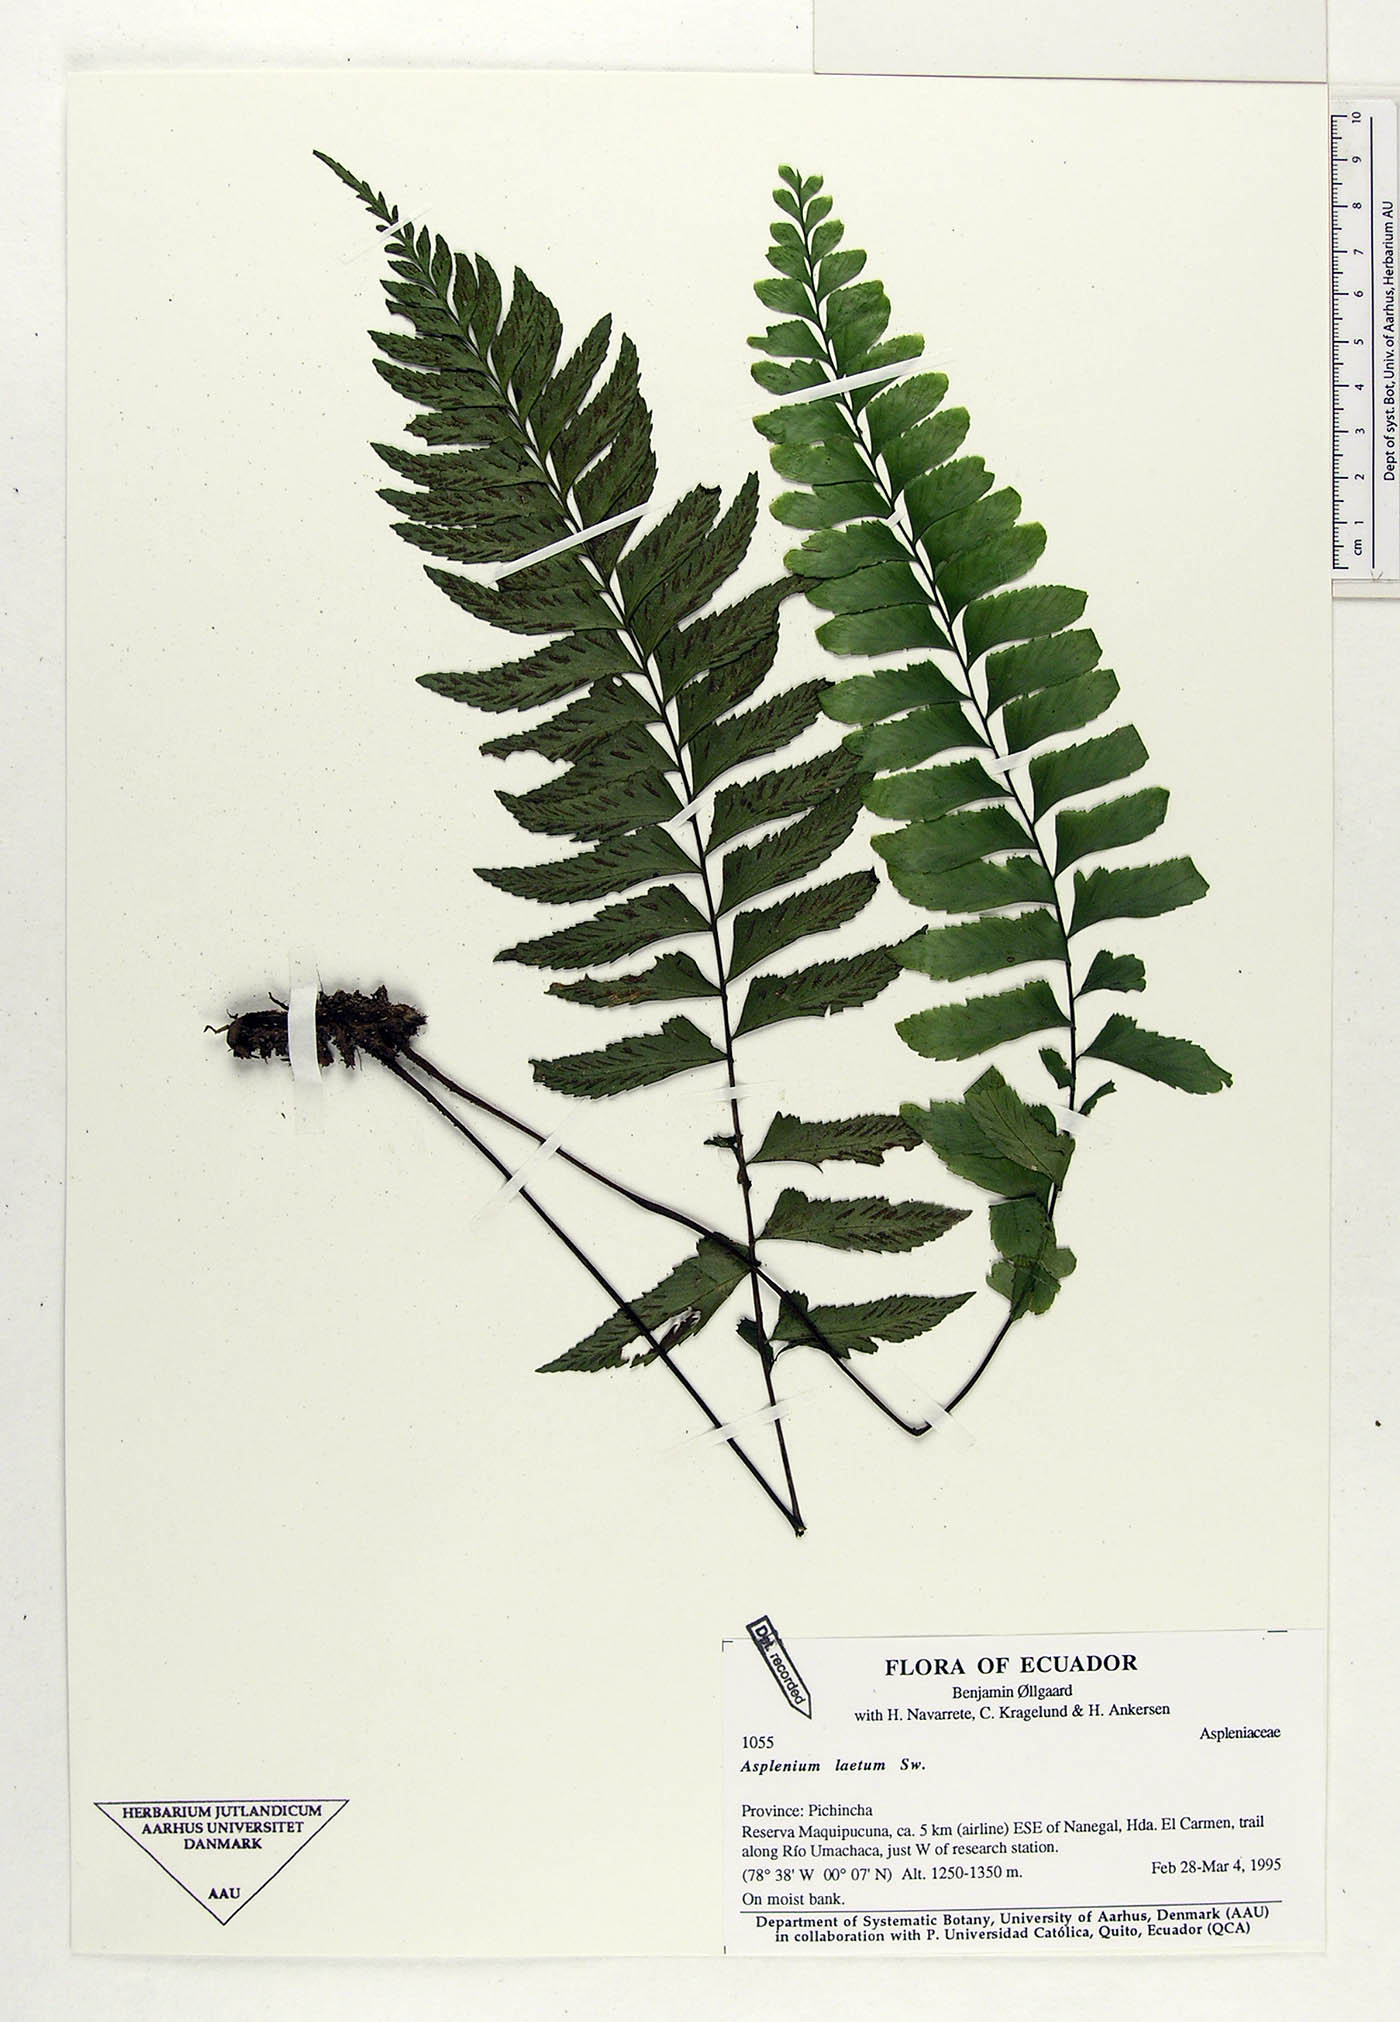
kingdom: Plantae
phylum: Tracheophyta
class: Polypodiopsida
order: Polypodiales
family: Aspleniaceae
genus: Hymenasplenium
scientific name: Hymenasplenium laetum
